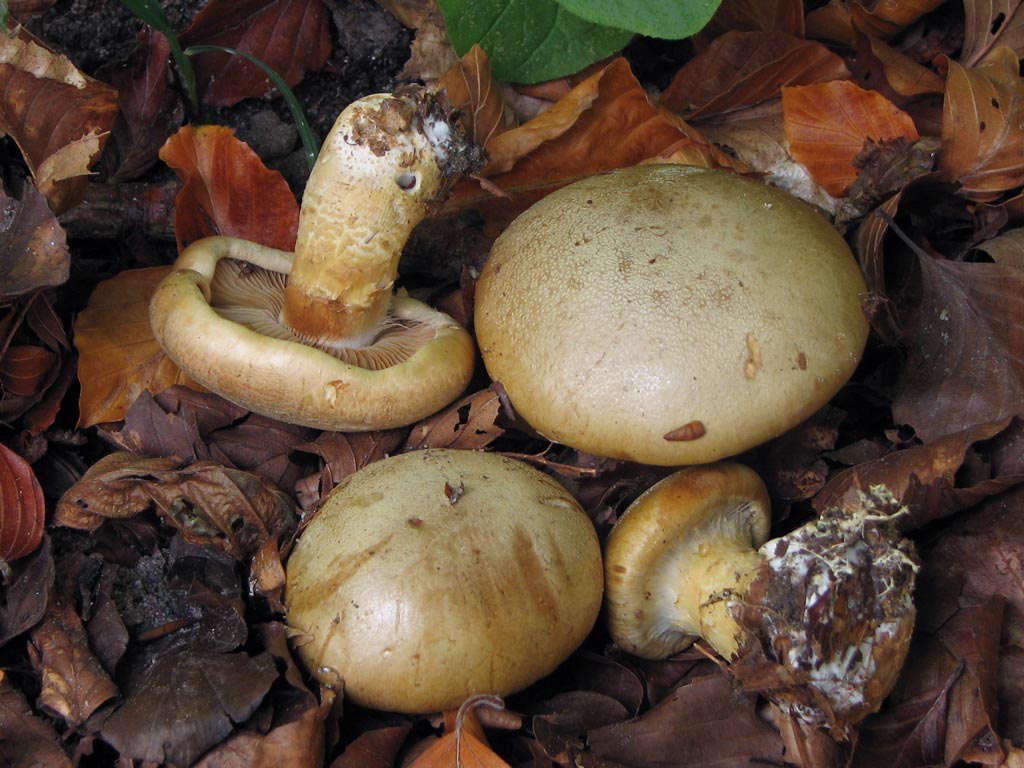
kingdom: Fungi
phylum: Basidiomycota
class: Agaricomycetes
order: Agaricales
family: Cortinariaceae
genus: Phlegmacium
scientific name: Phlegmacium cliduchus
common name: majs-slørhat
